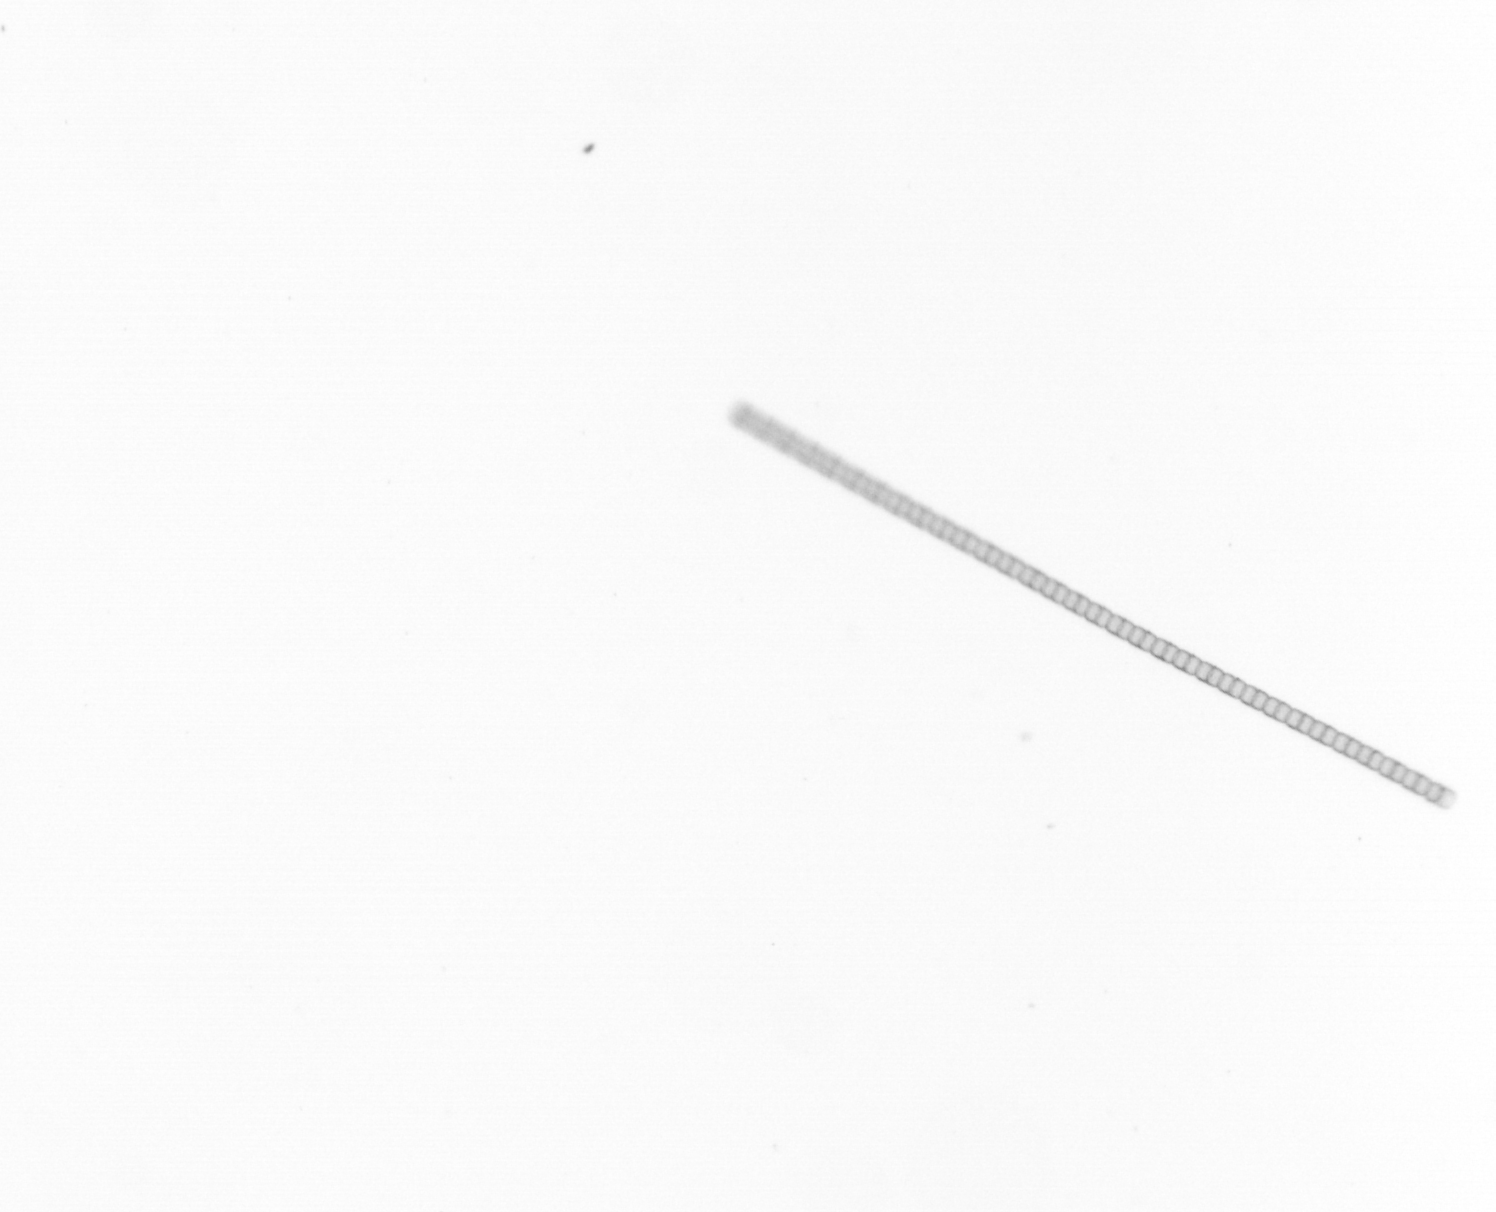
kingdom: Chromista
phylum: Ochrophyta
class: Bacillariophyceae
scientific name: Bacillariophyceae
